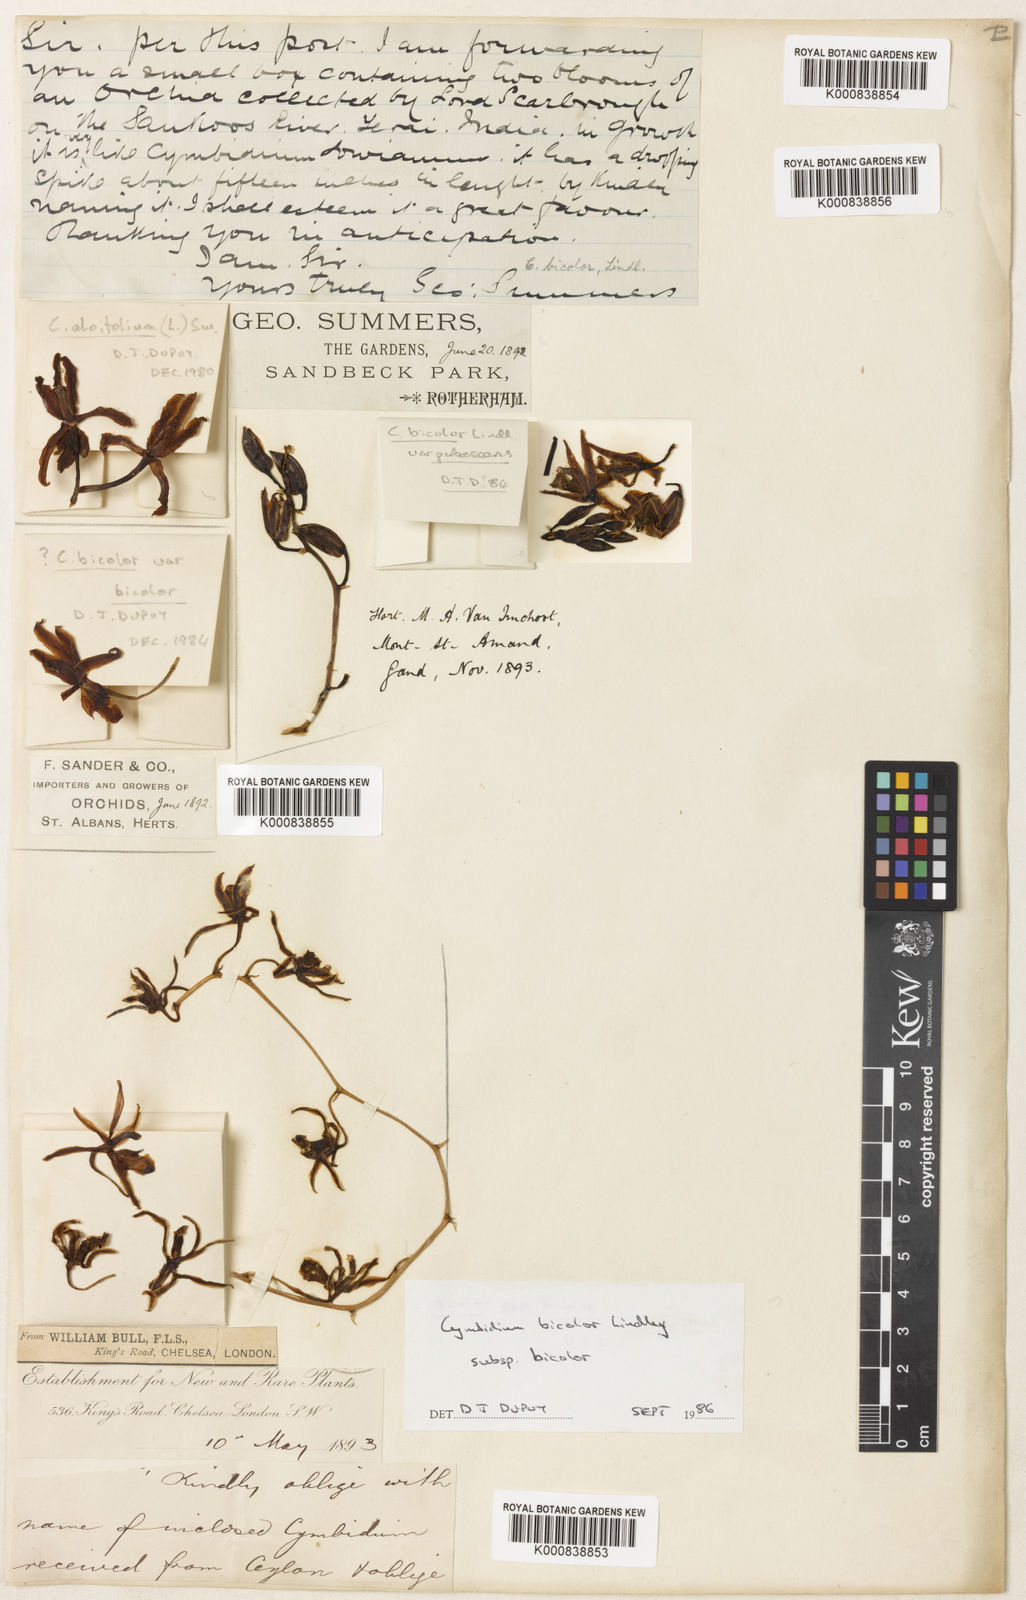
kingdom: Plantae
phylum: Tracheophyta
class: Liliopsida
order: Asparagales
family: Orchidaceae
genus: Cymbidium
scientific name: Cymbidium bicolor
